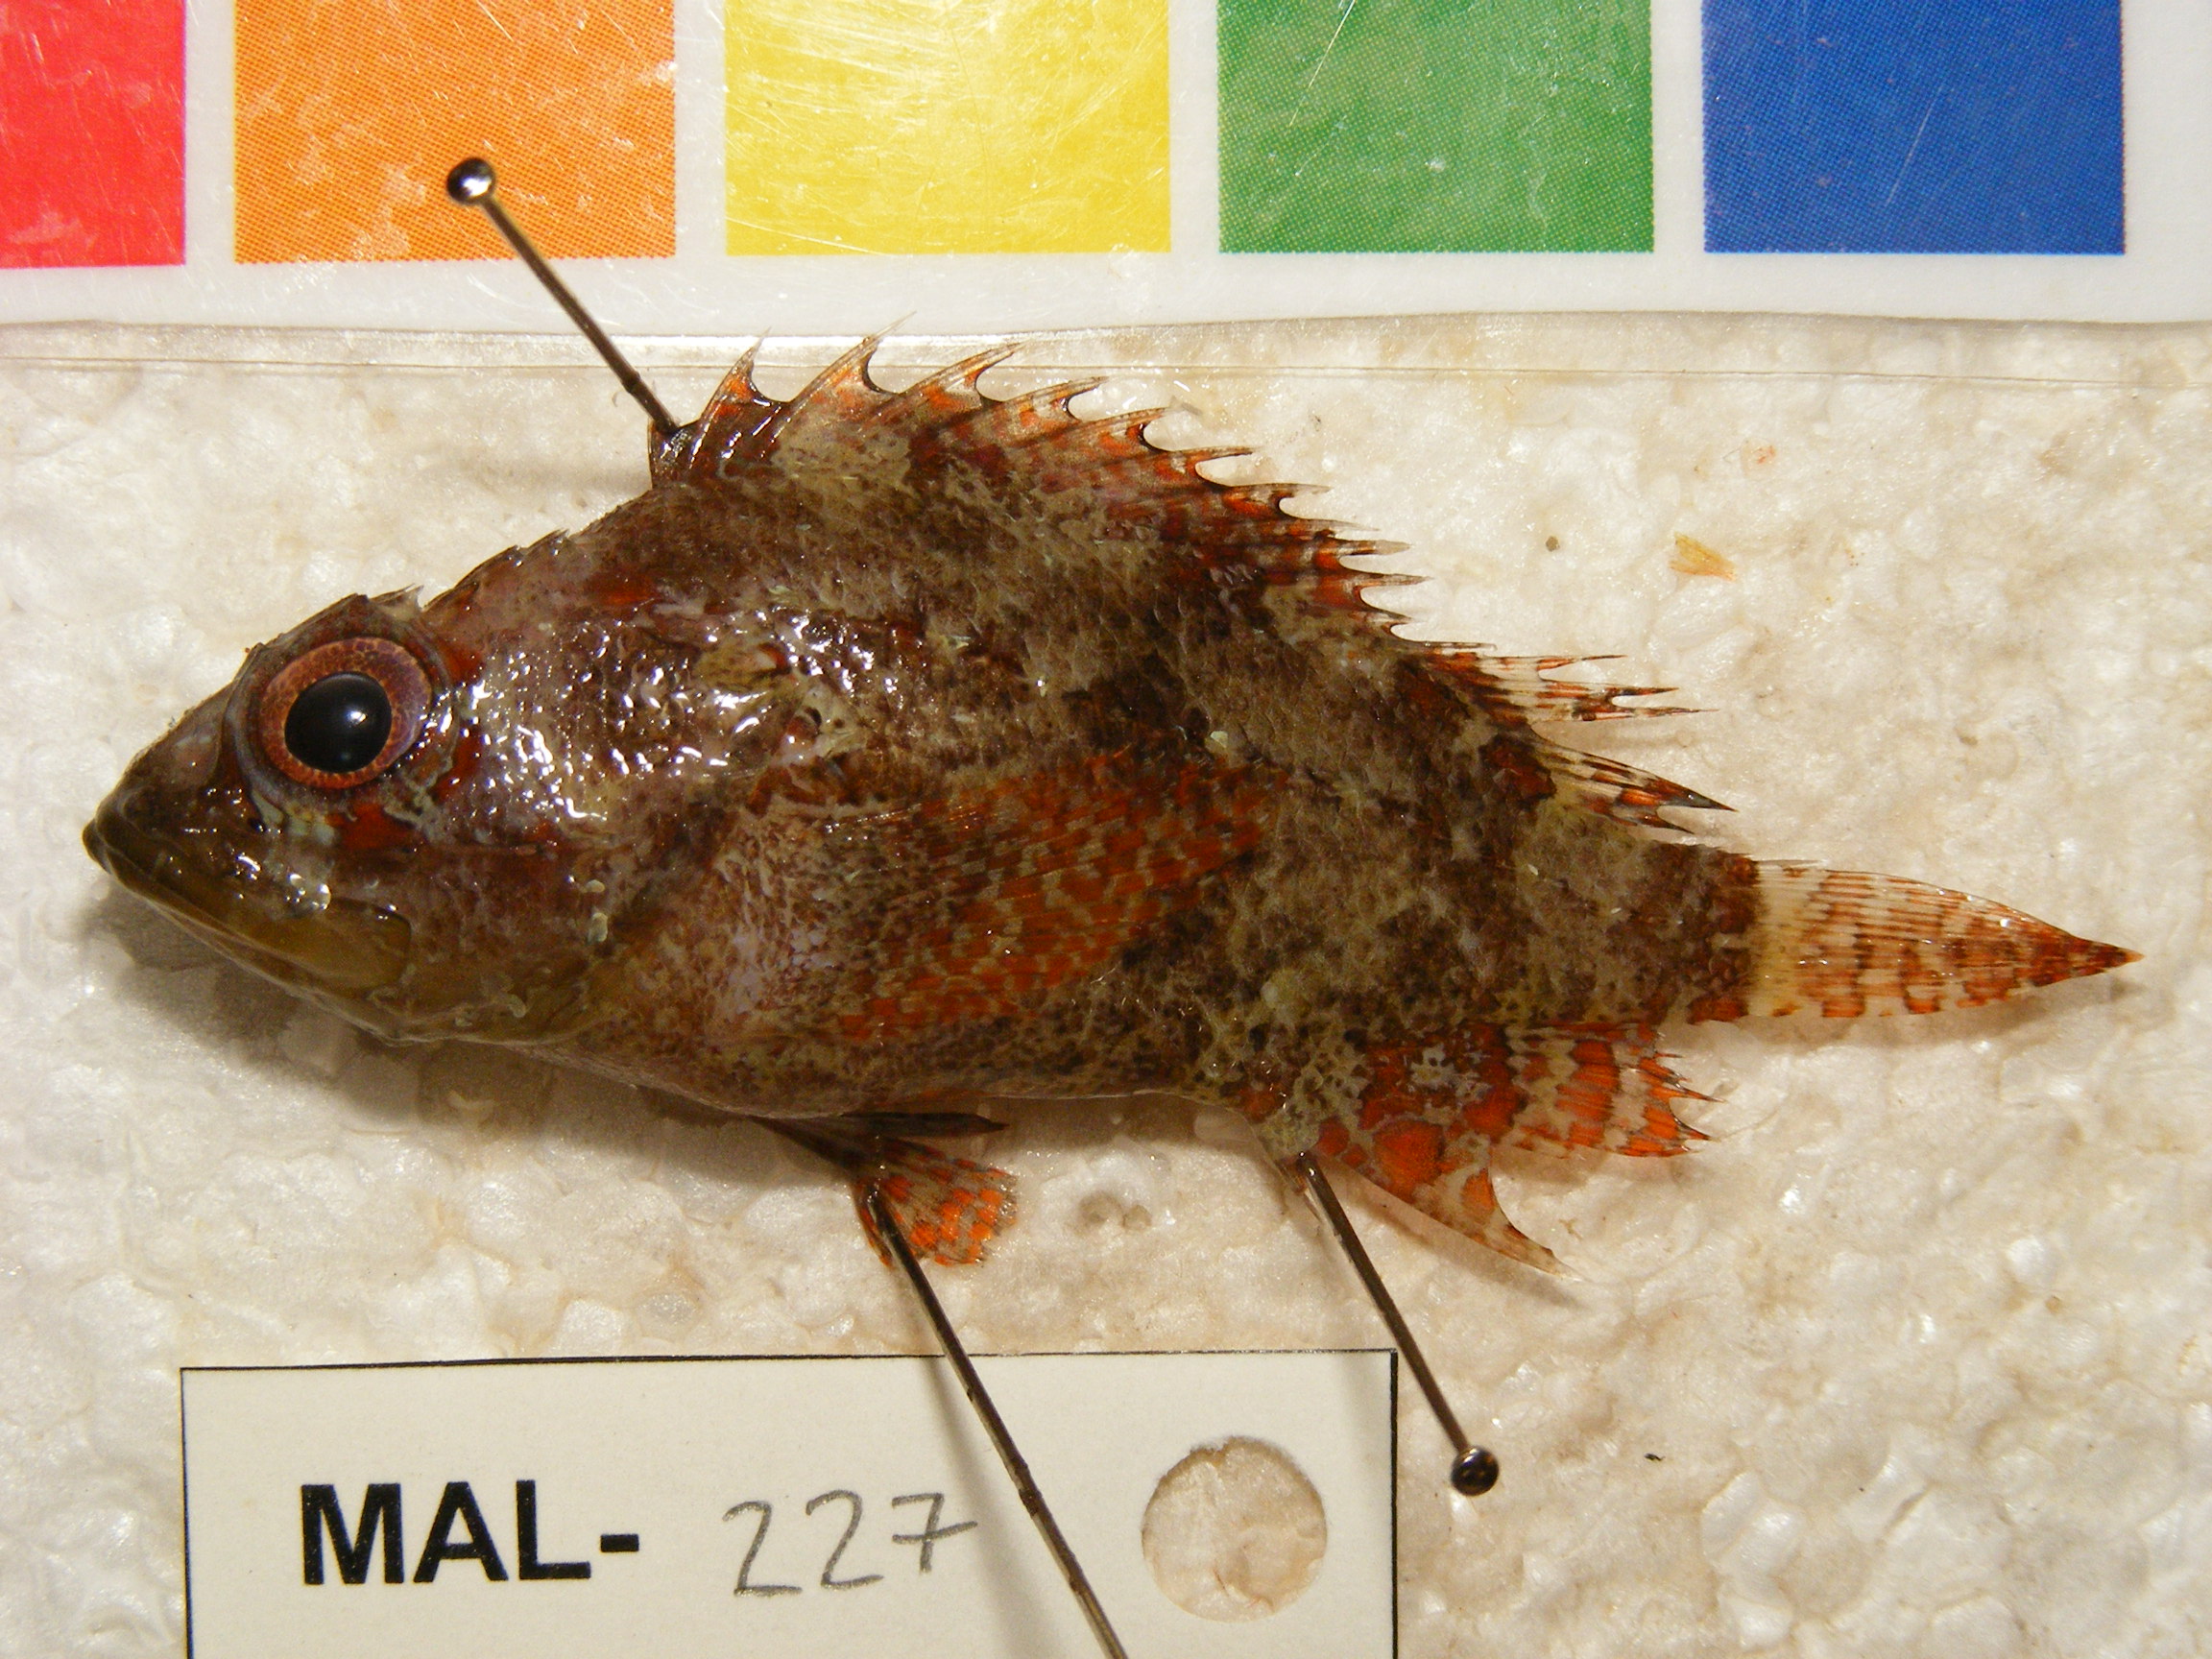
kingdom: Animalia
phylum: Chordata
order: Scorpaeniformes
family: Scorpaenidae
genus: Scorpaenodes
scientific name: Scorpaenodes guamensis
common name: Guam scorpionfish
